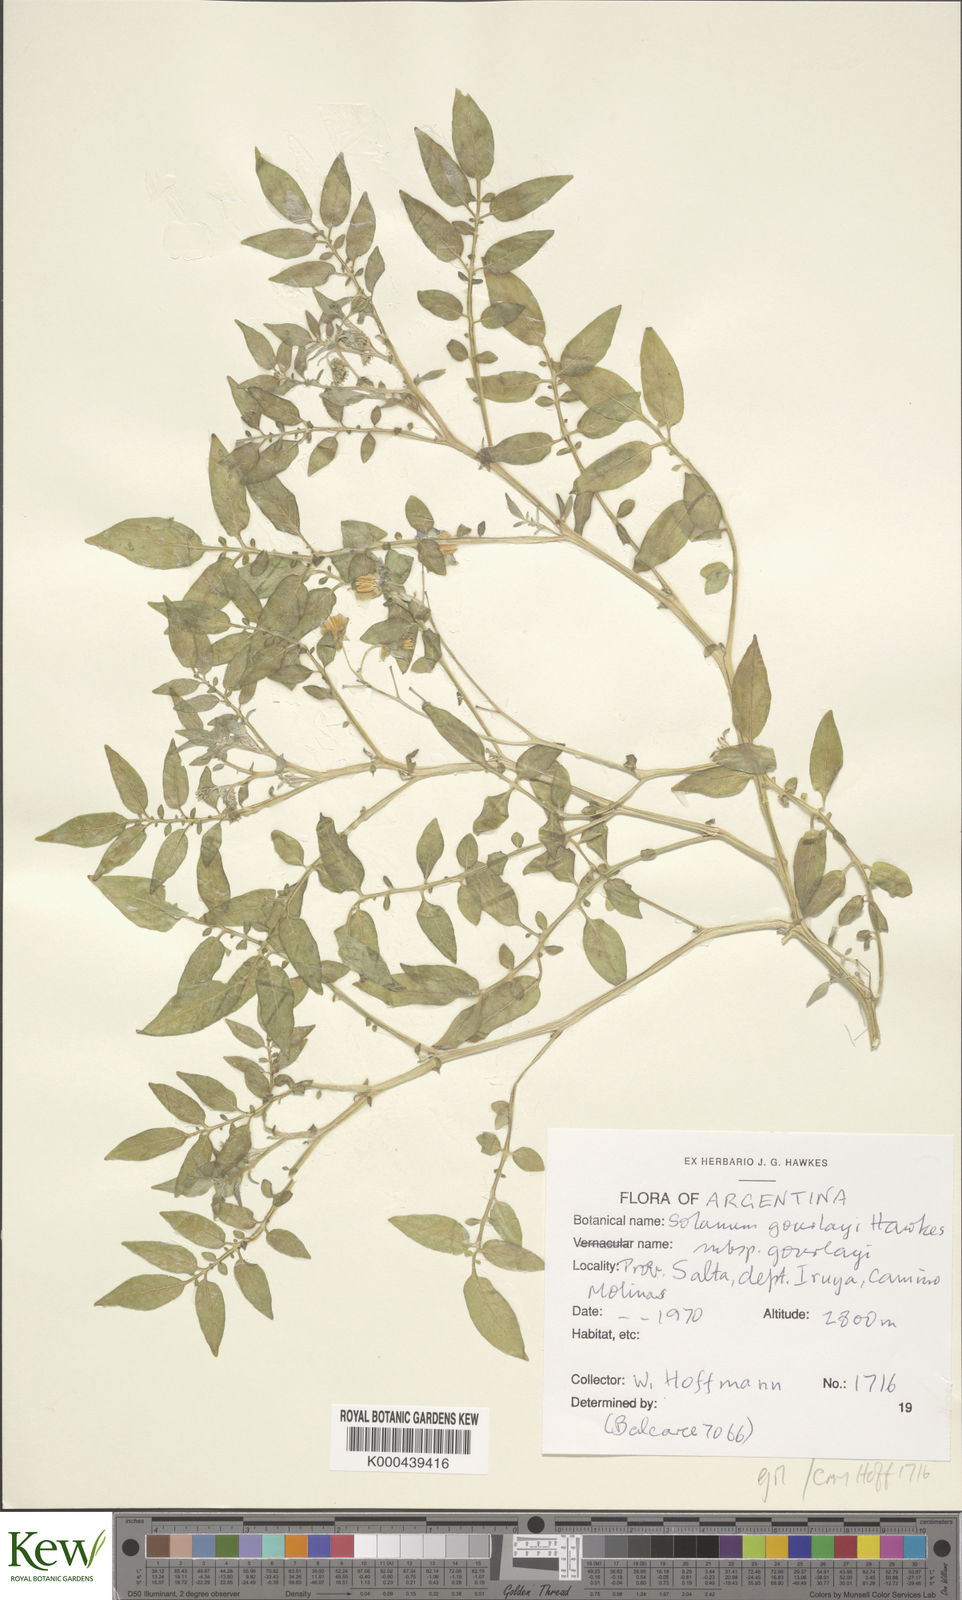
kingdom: Plantae
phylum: Tracheophyta
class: Magnoliopsida
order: Solanales
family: Solanaceae
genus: Solanum
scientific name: Solanum brevicaule
